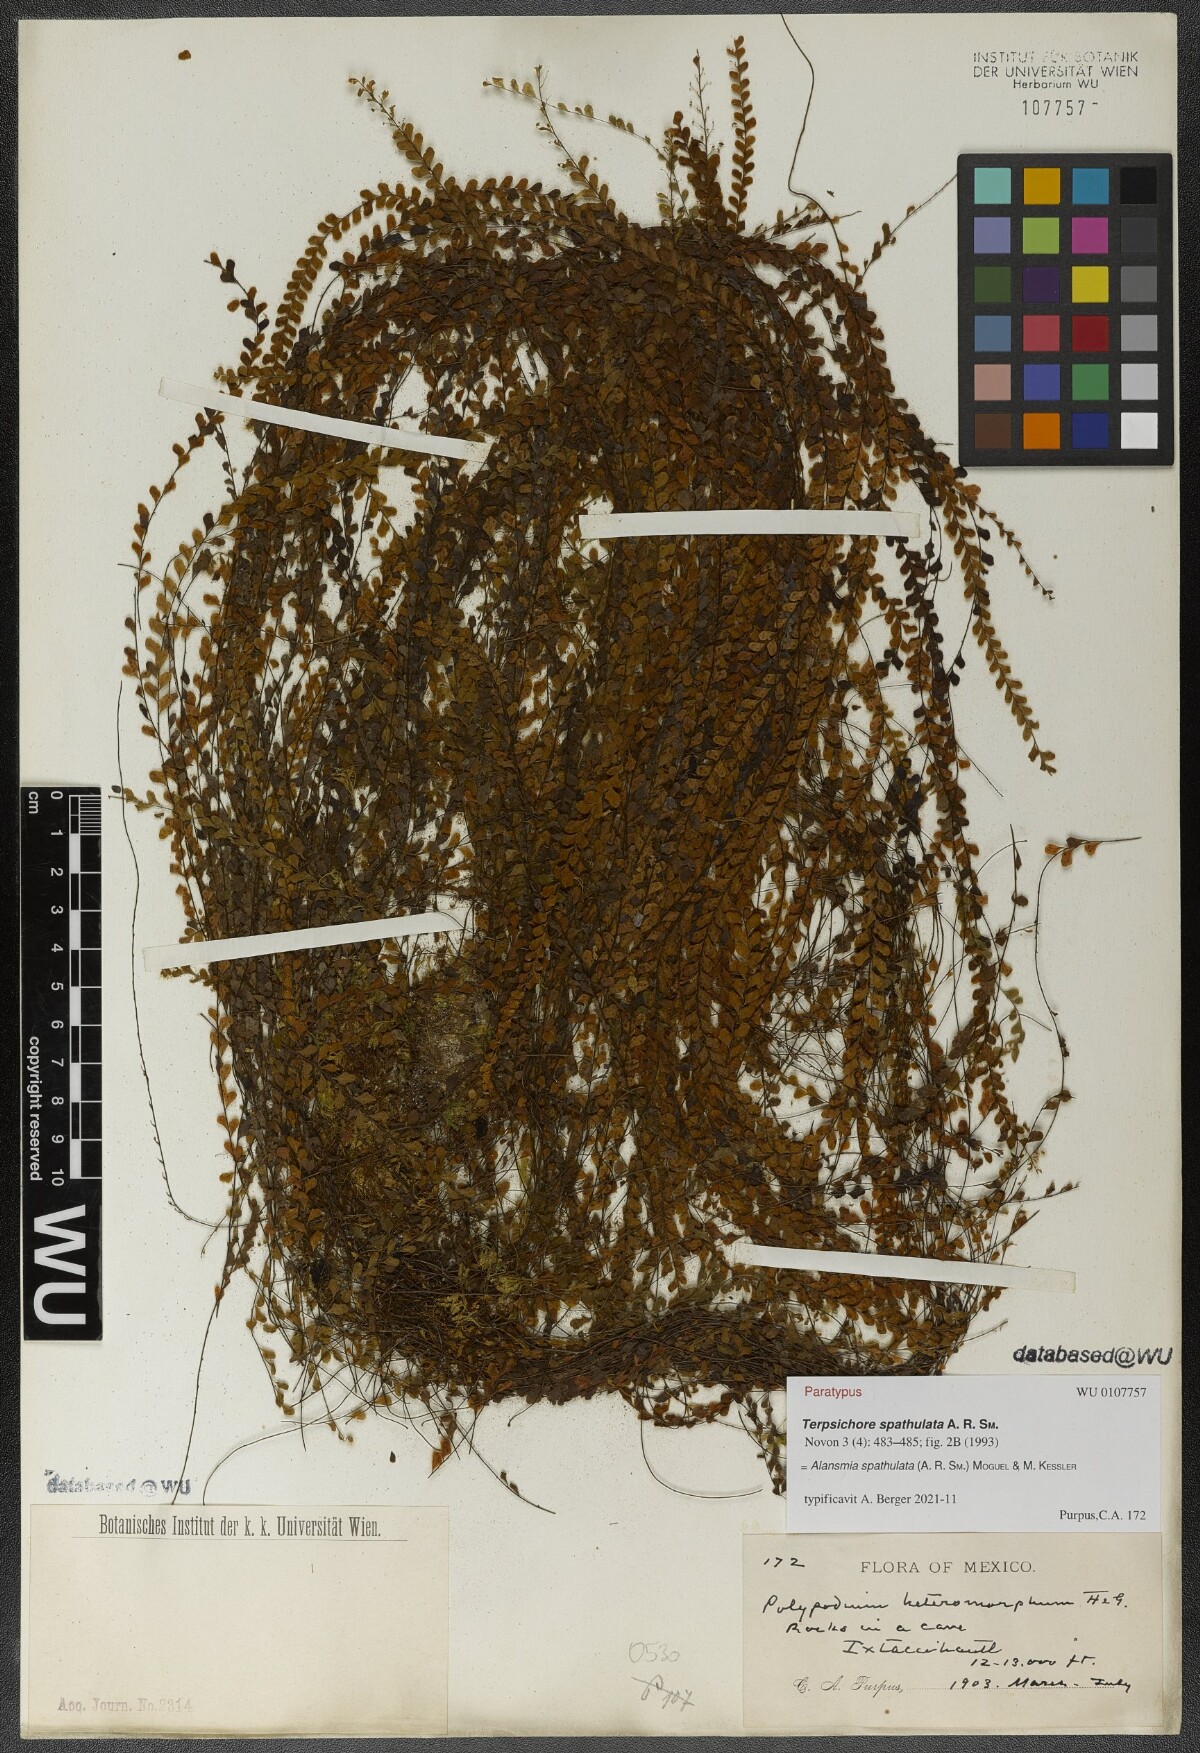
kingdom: Plantae
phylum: Tracheophyta
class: Polypodiopsida
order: Polypodiales
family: Polypodiaceae
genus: Alansmia
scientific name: Alansmia spathulata
